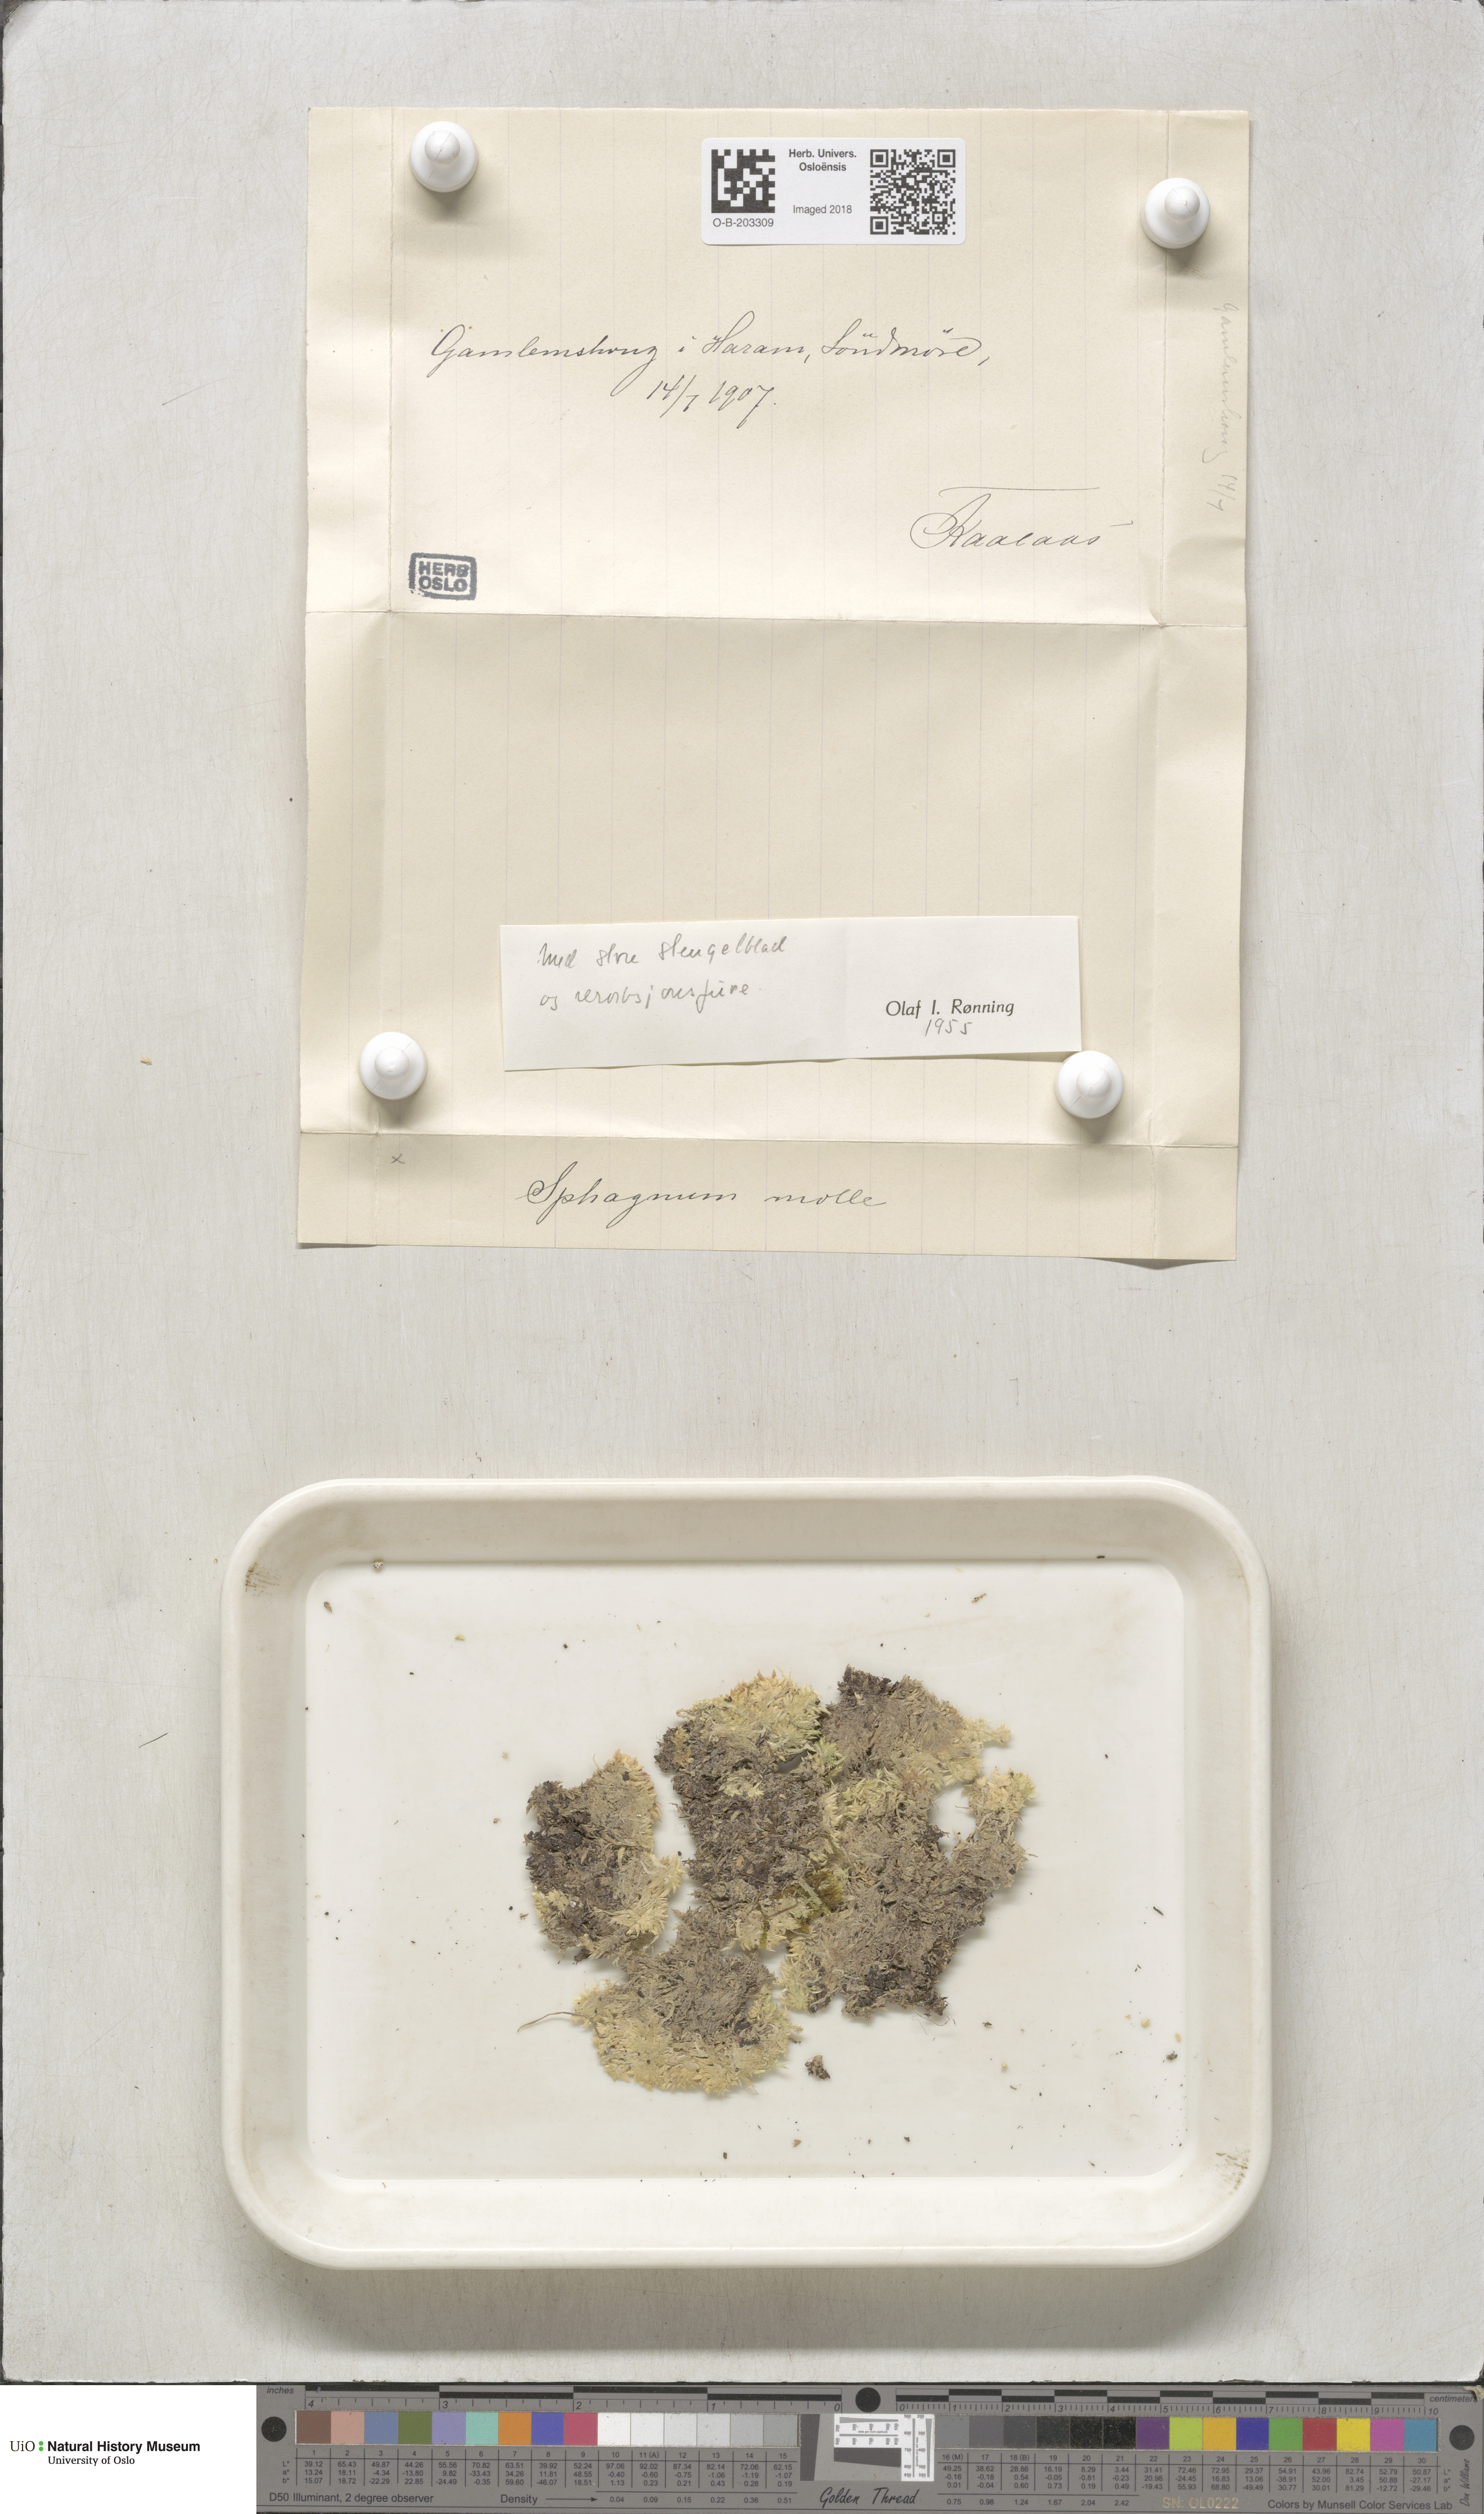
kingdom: Plantae
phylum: Bryophyta
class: Sphagnopsida
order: Sphagnales
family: Sphagnaceae
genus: Sphagnum
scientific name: Sphagnum molle
